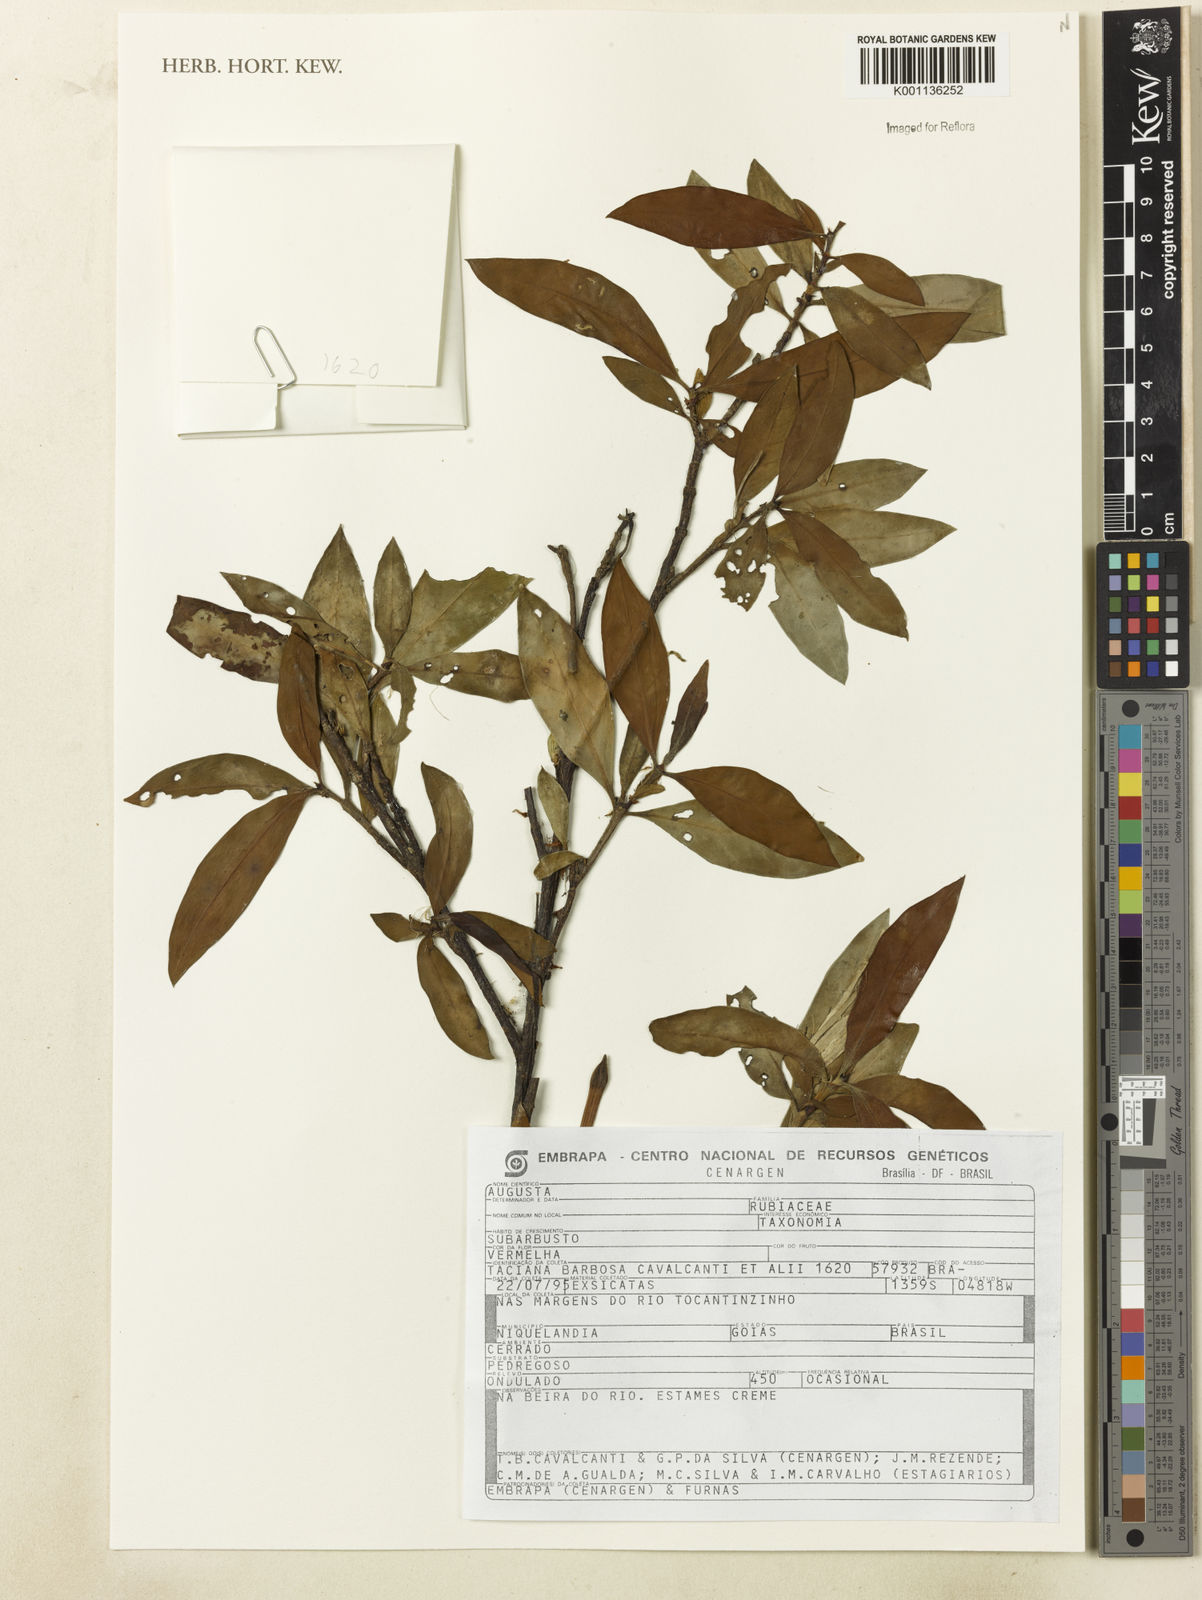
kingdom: Plantae
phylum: Tracheophyta
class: Magnoliopsida
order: Gentianales
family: Rubiaceae
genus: Augusta
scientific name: Augusta
